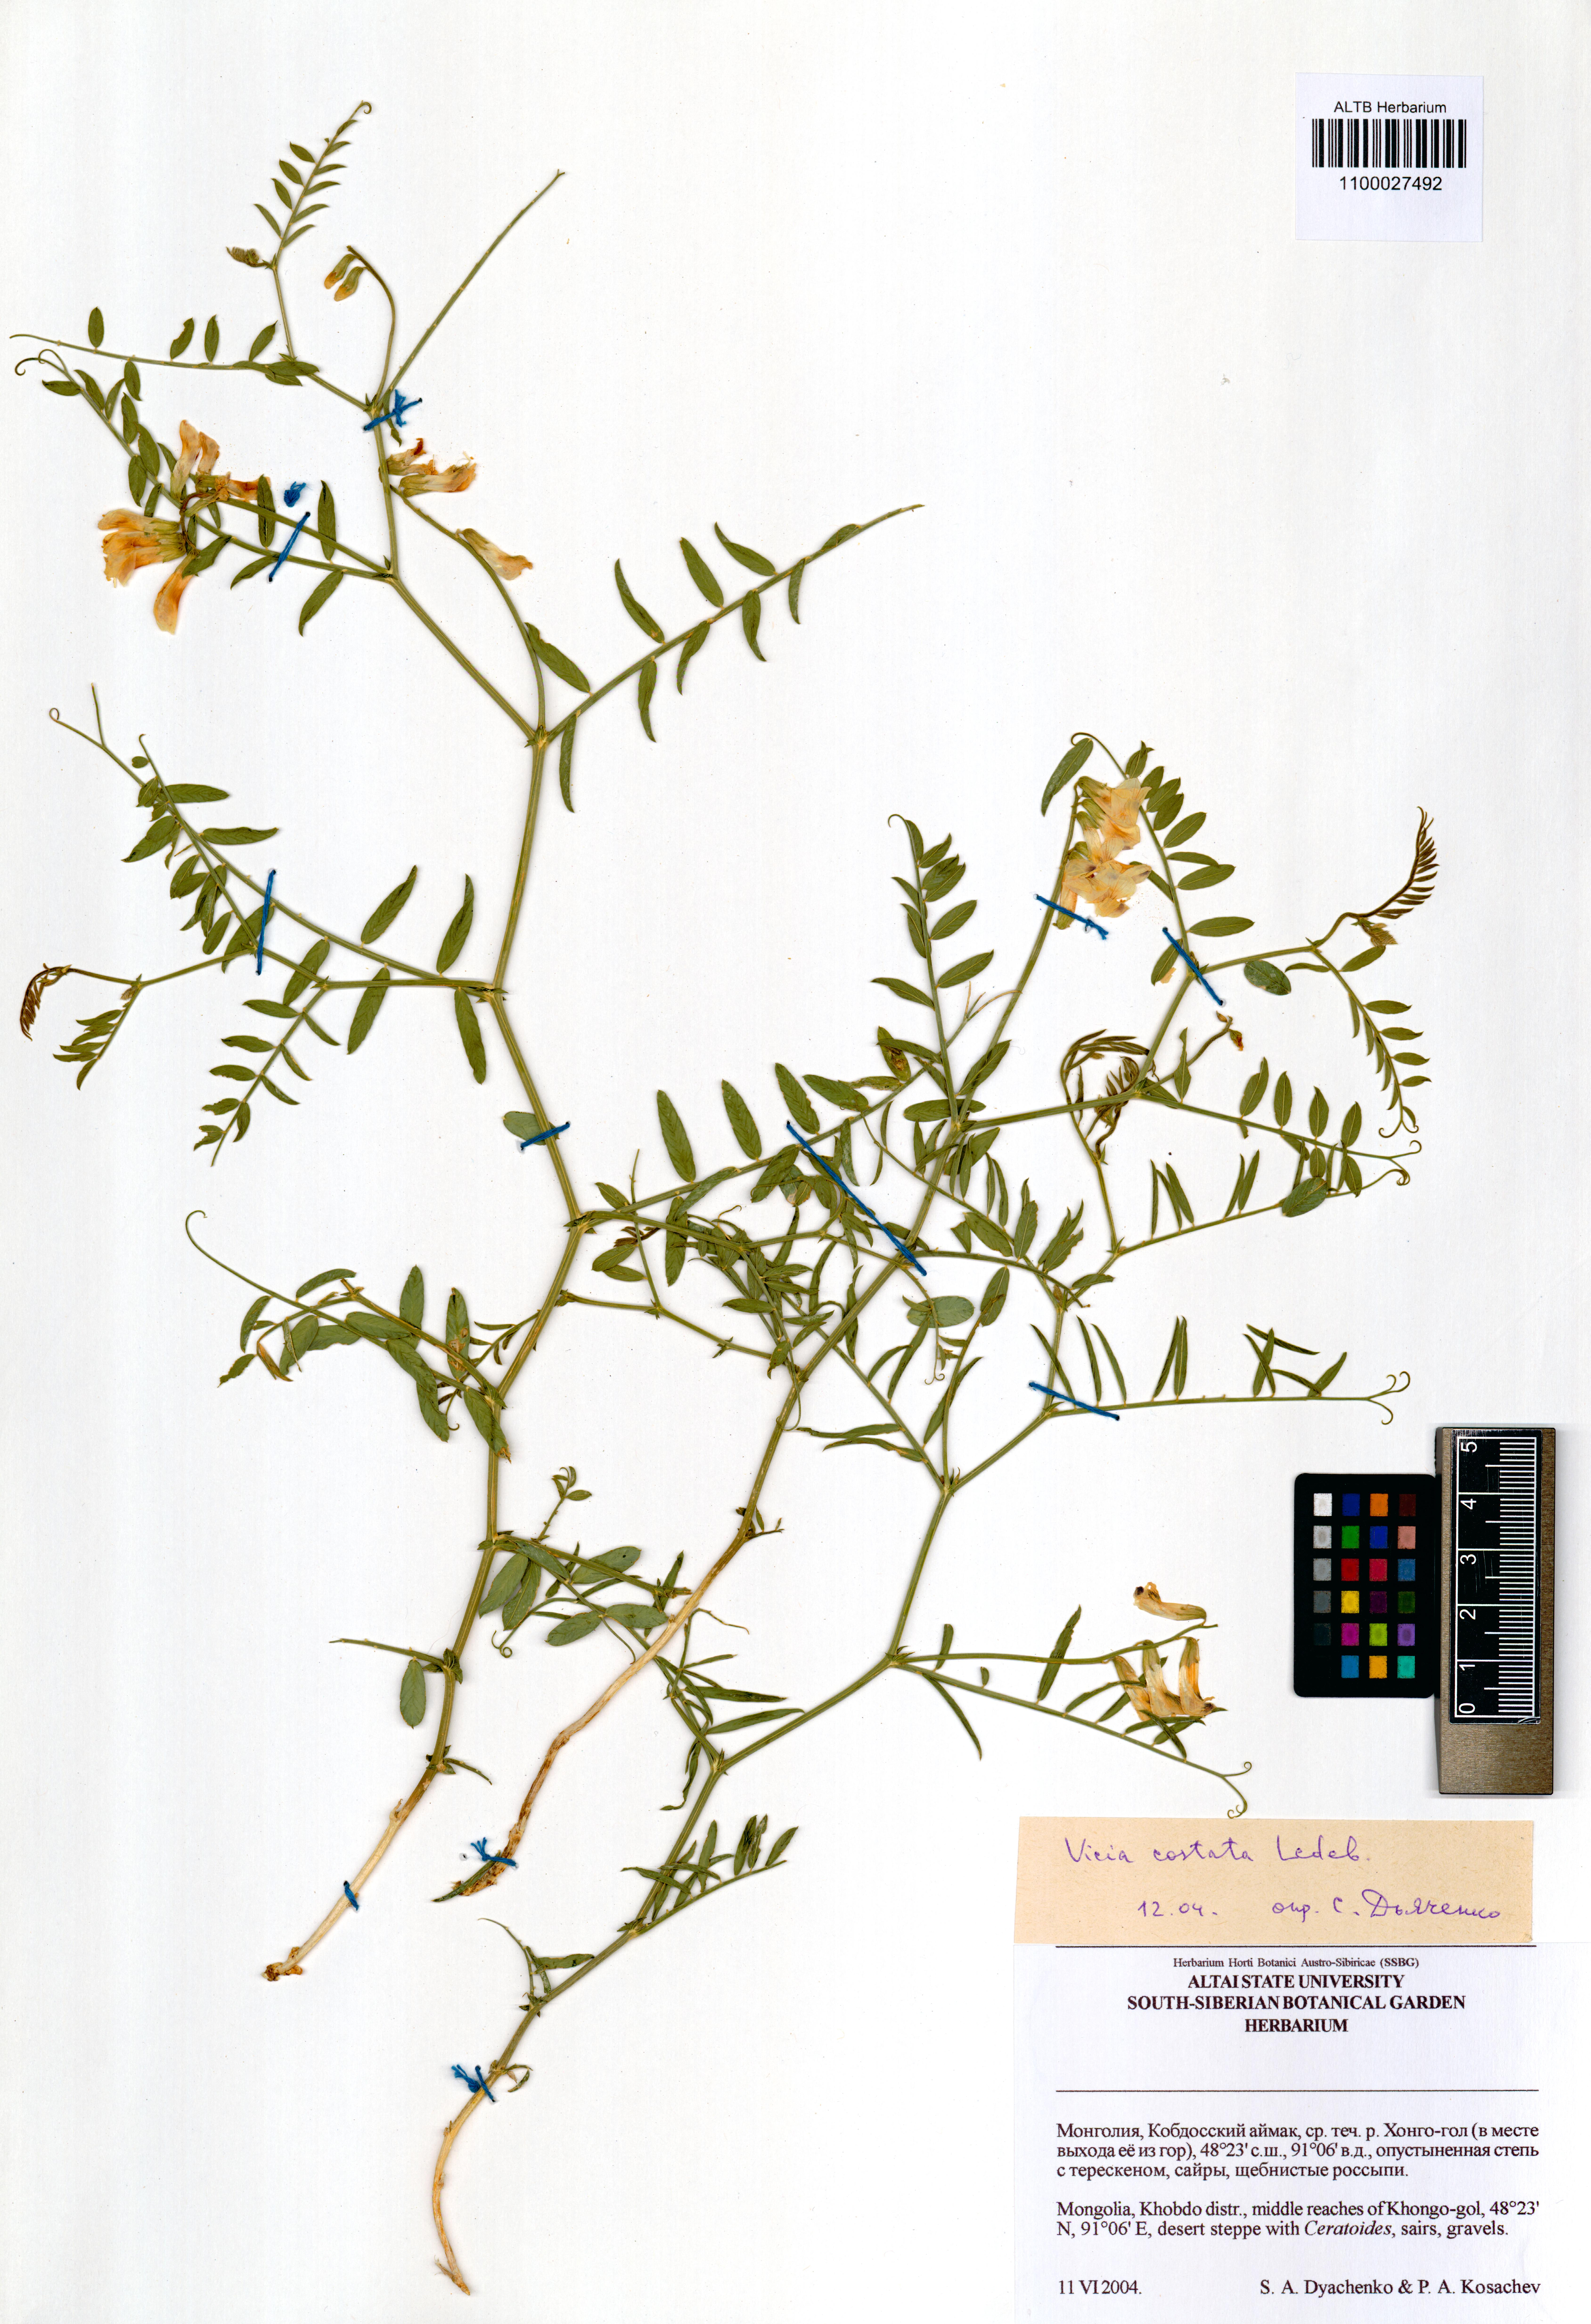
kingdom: Plantae
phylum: Tracheophyta
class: Magnoliopsida
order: Fabales
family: Fabaceae
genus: Vicia
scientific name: Vicia costata
